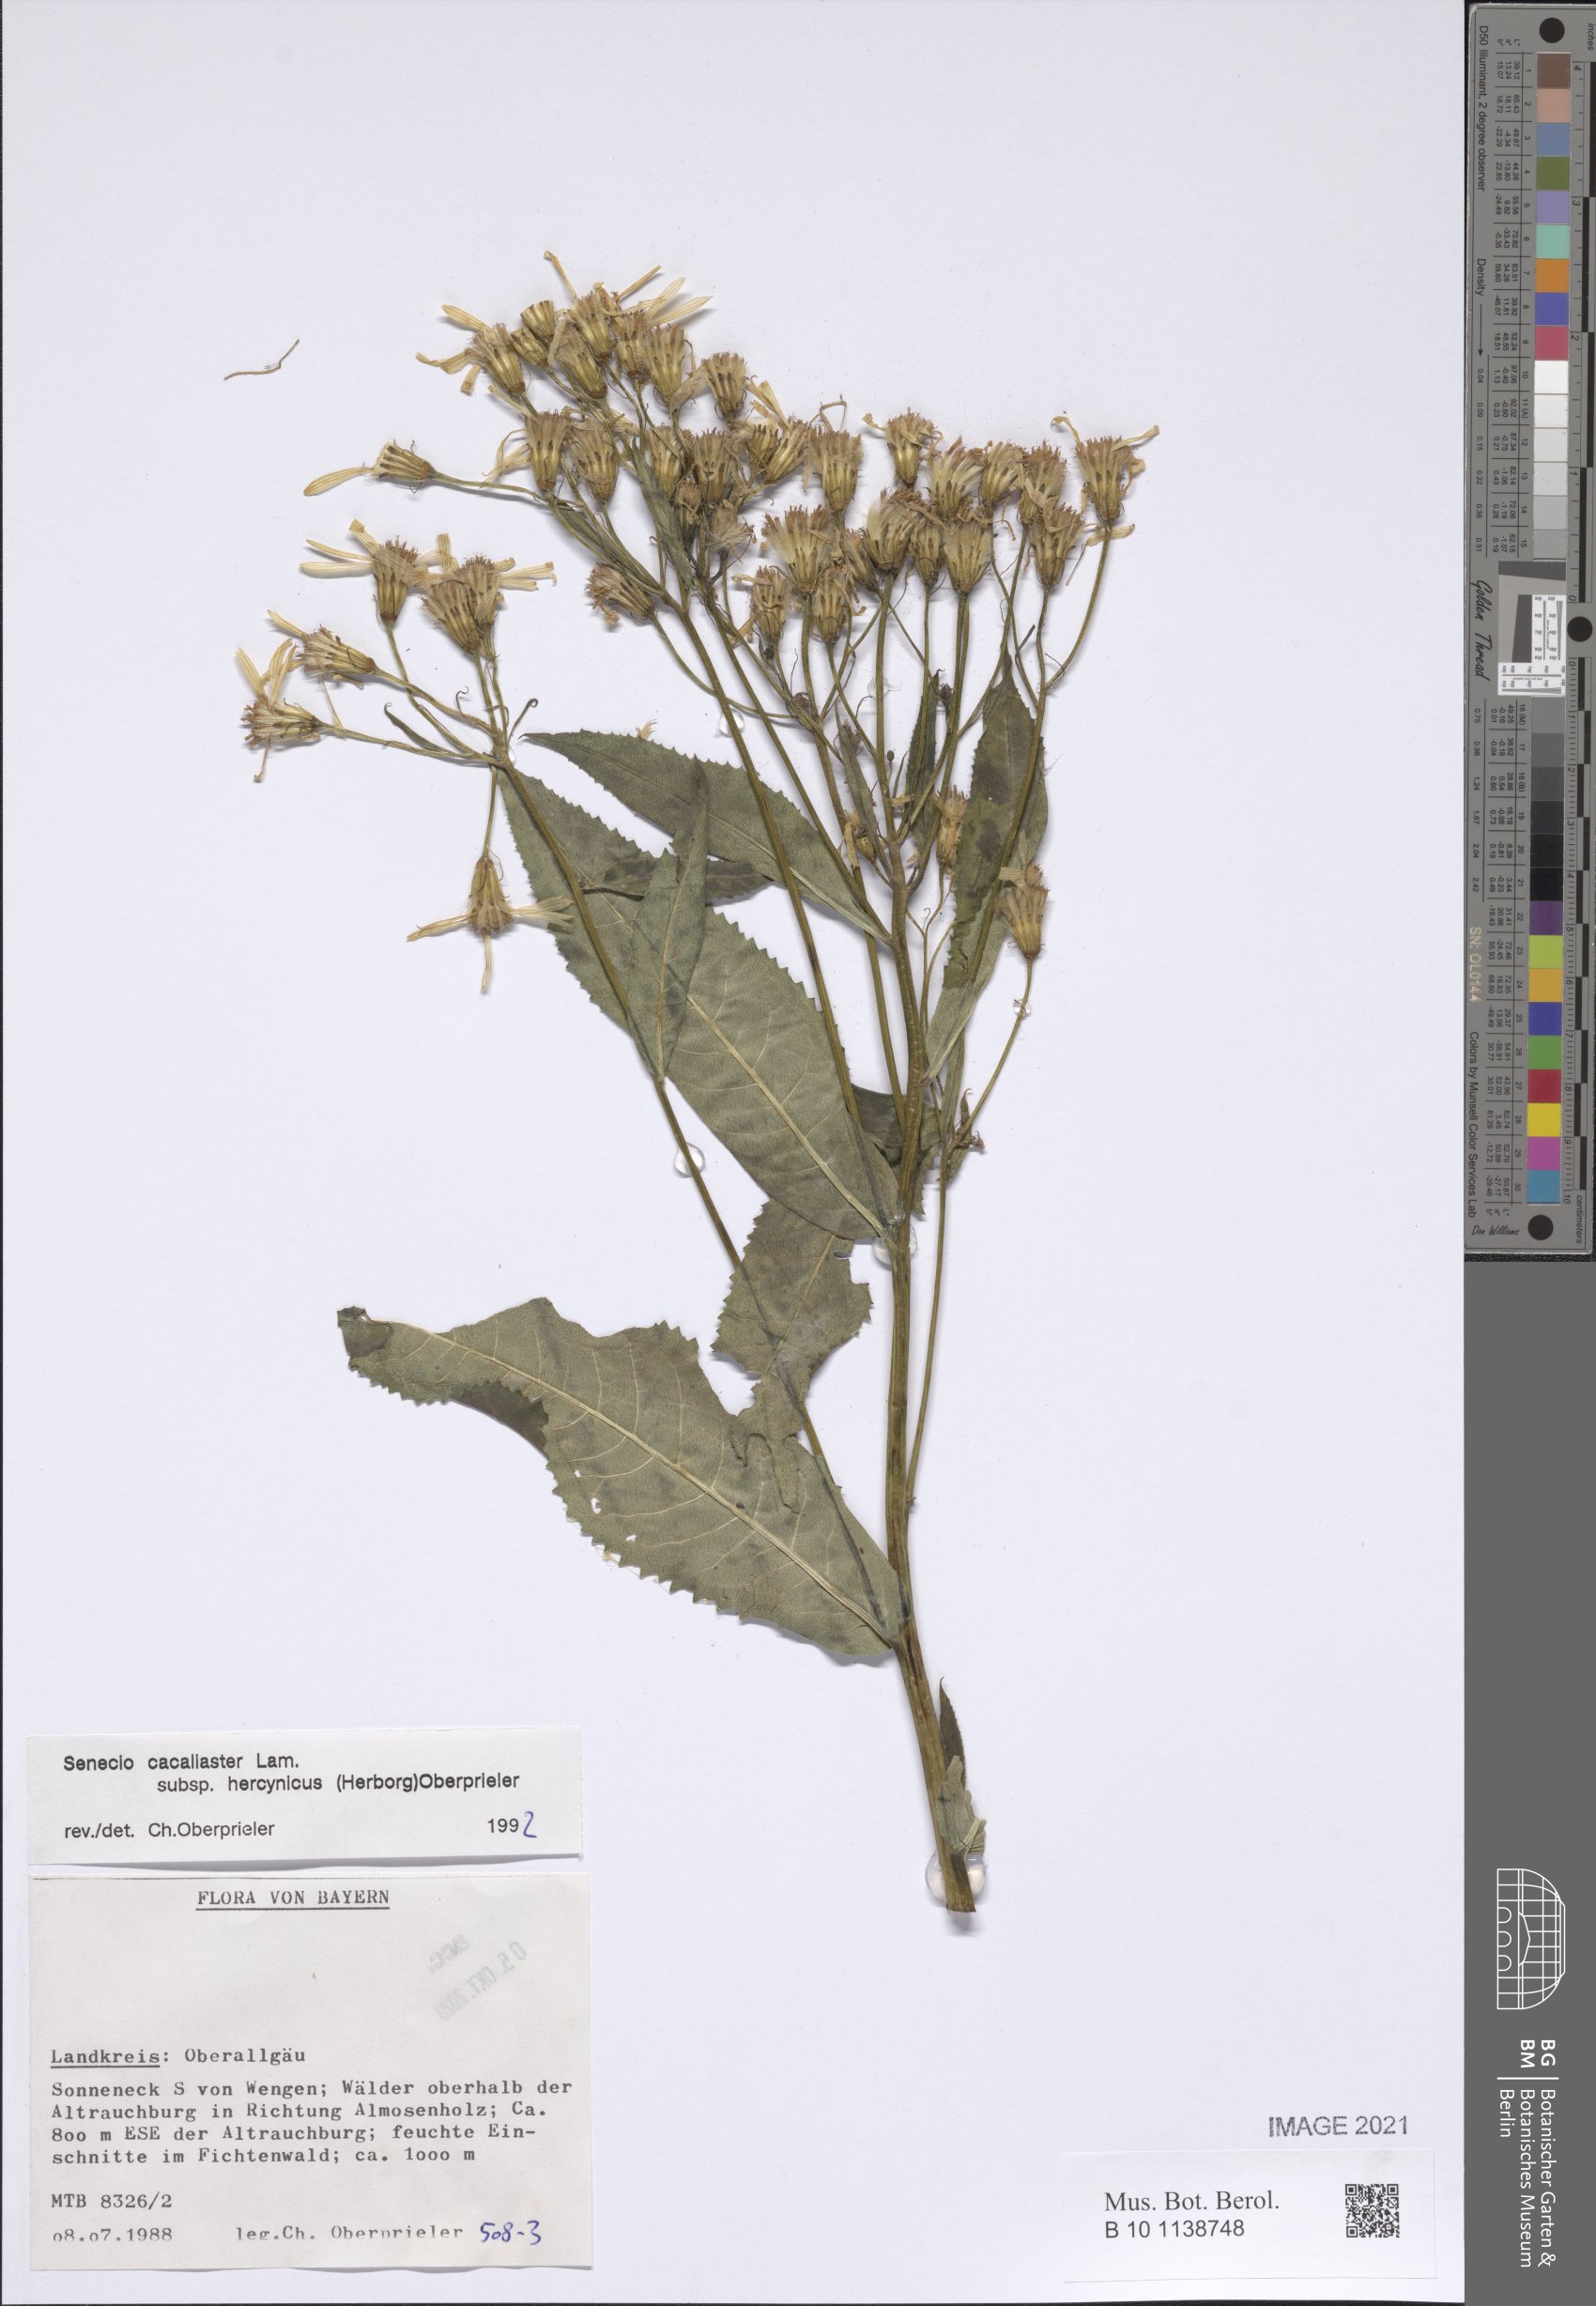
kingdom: Plantae
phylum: Tracheophyta
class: Magnoliopsida
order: Asterales
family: Asteraceae
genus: Senecio
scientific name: Senecio hercynicus
